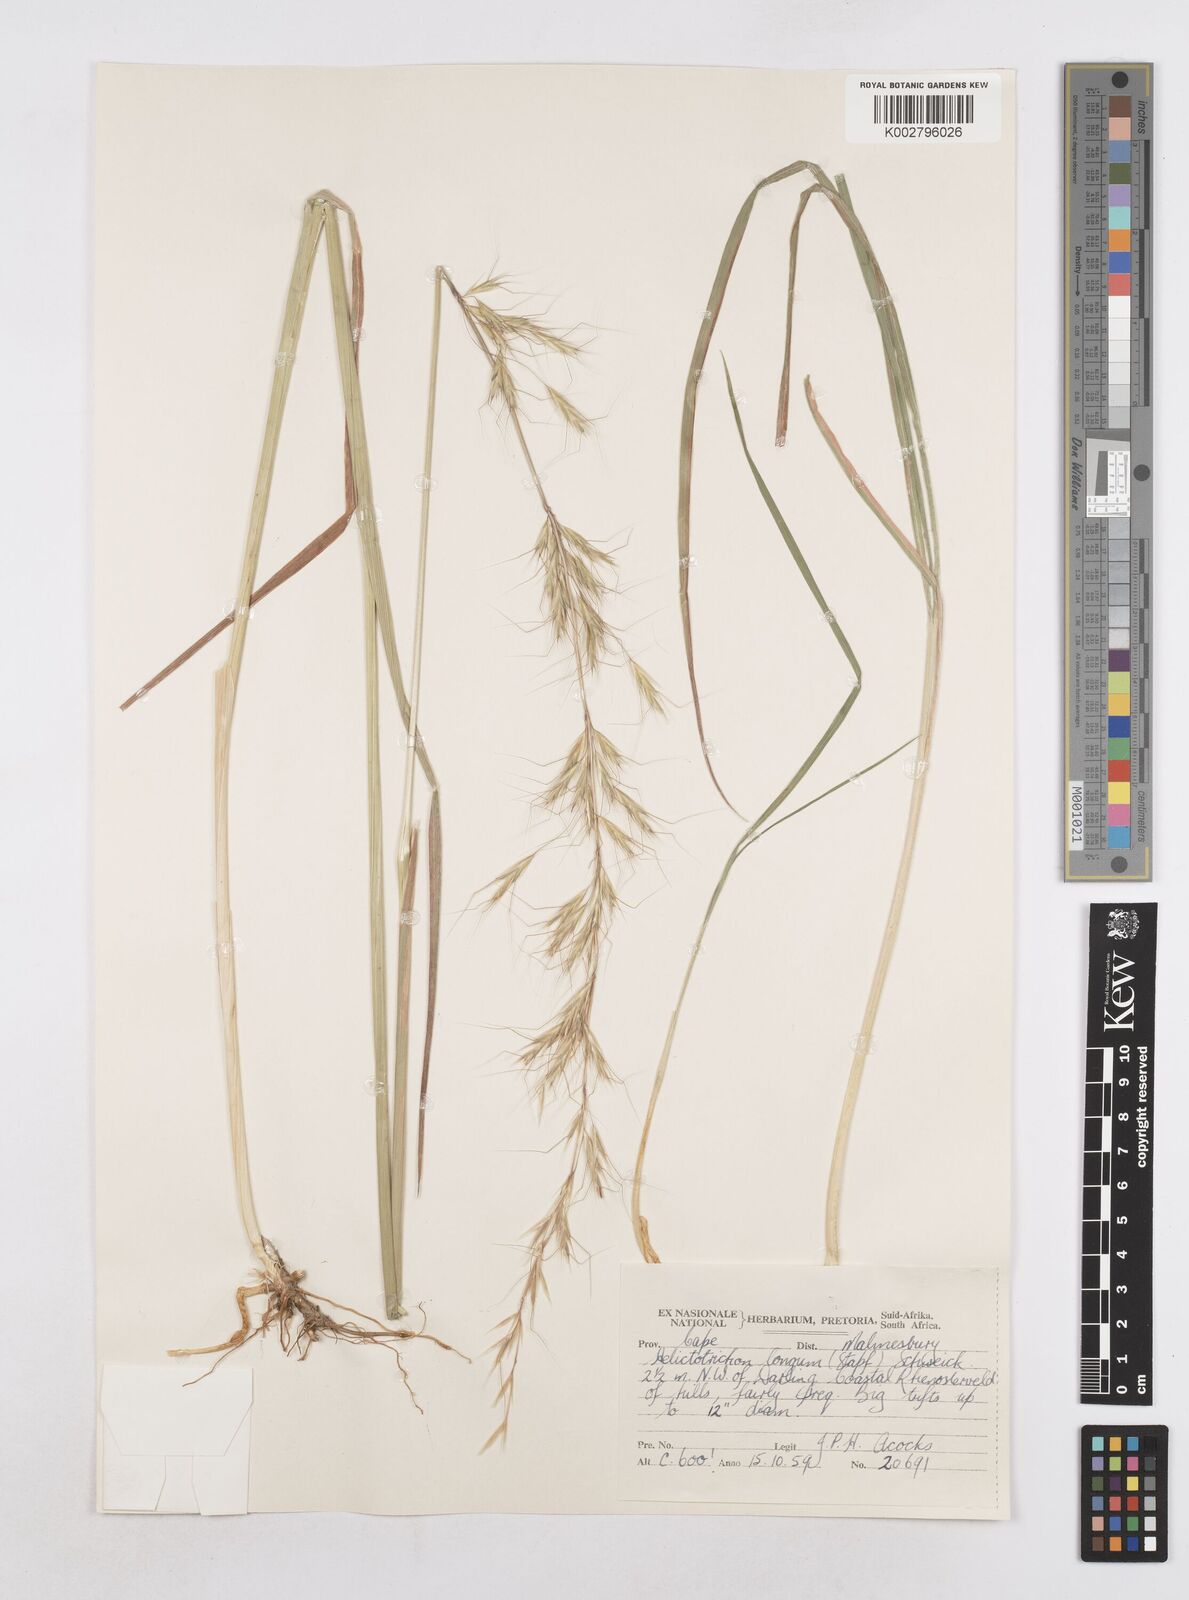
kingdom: Plantae
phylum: Tracheophyta
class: Liliopsida
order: Poales
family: Poaceae
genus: Trisetopsis
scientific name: Trisetopsis longa
